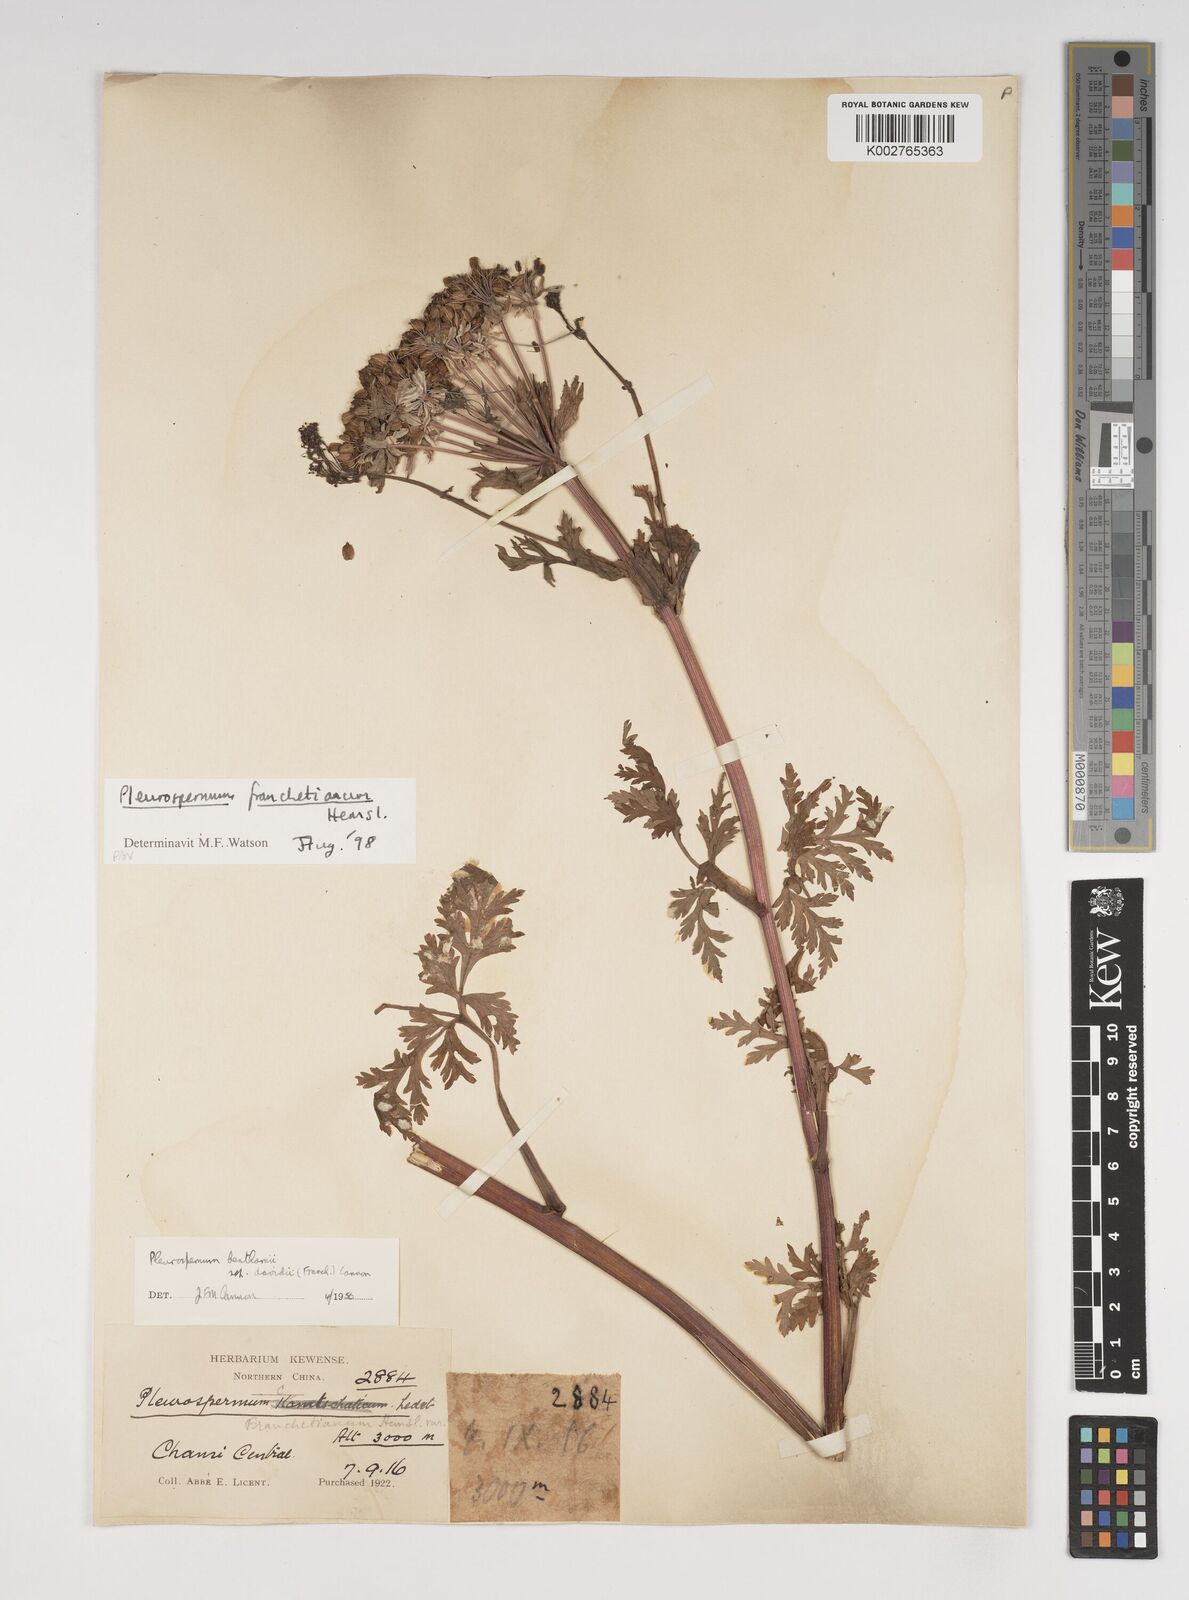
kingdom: Plantae
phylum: Tracheophyta
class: Magnoliopsida
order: Apiales
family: Apiaceae
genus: Hymenidium
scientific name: Hymenidium
